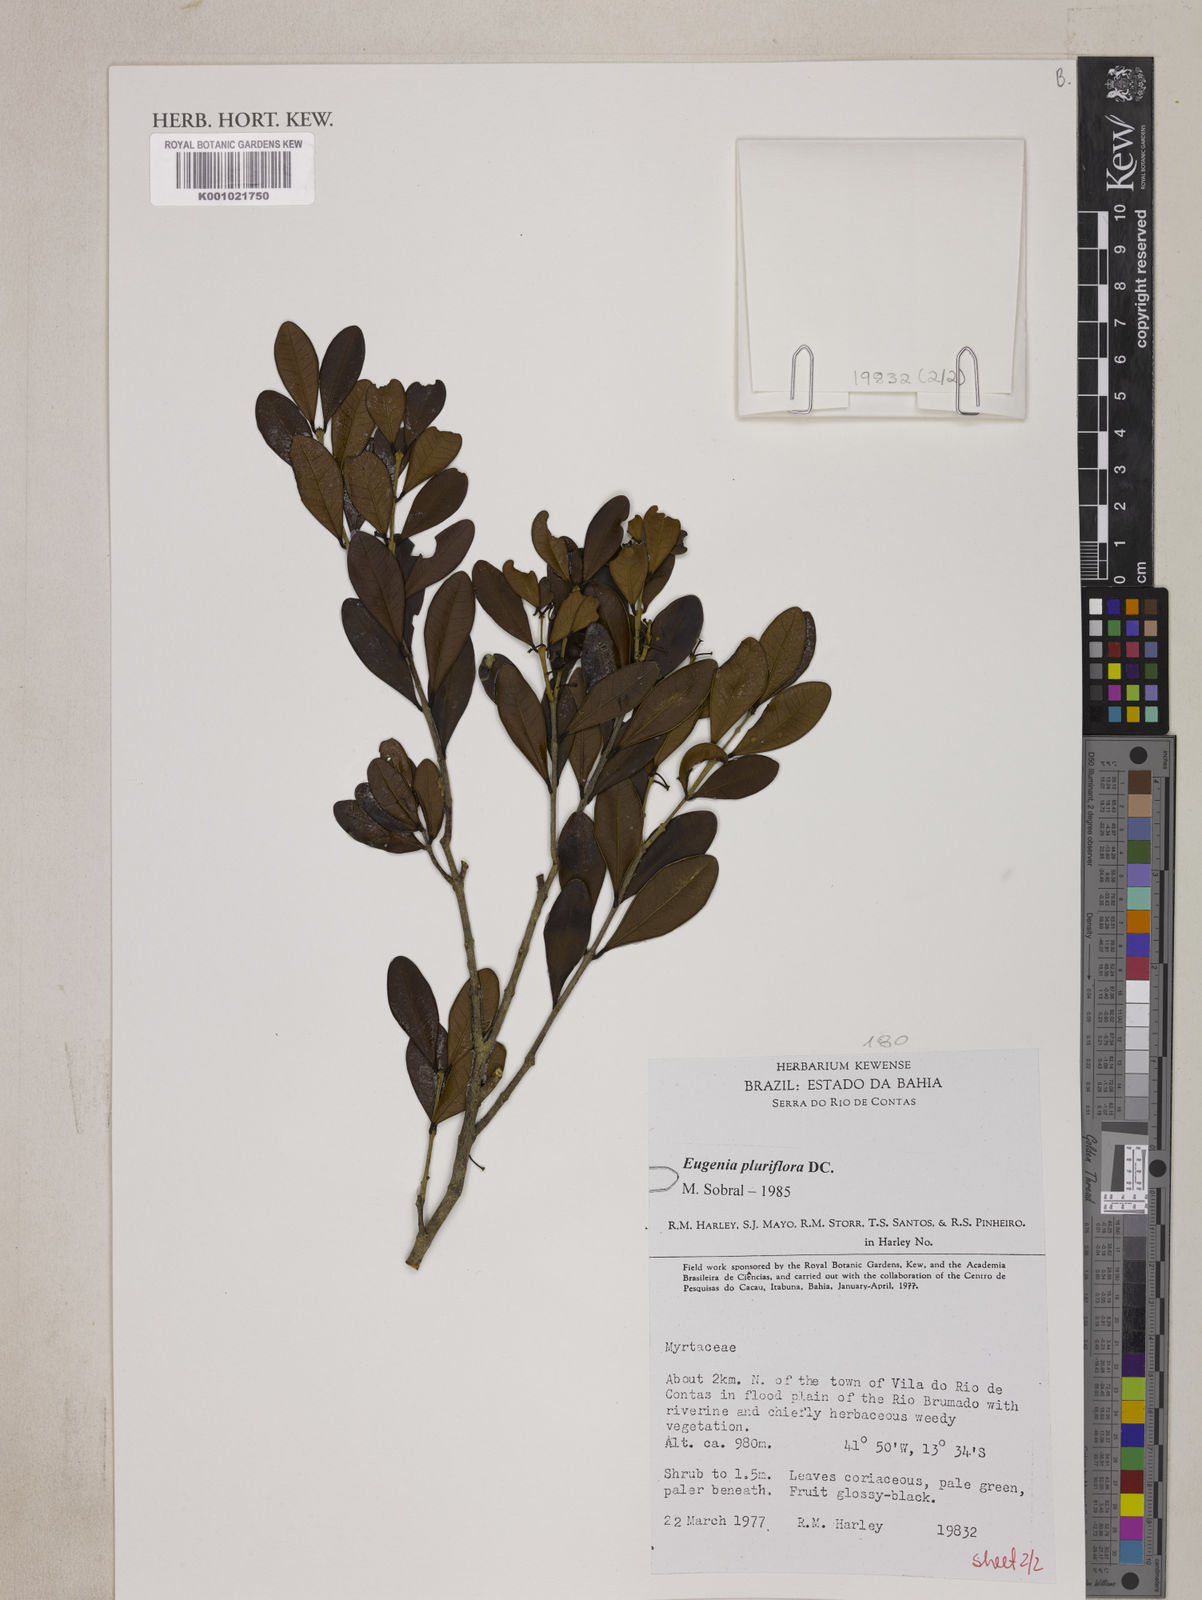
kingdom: Plantae
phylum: Tracheophyta
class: Magnoliopsida
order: Myrtales
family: Myrtaceae
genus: Eugenia
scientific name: Eugenia pluriflora
